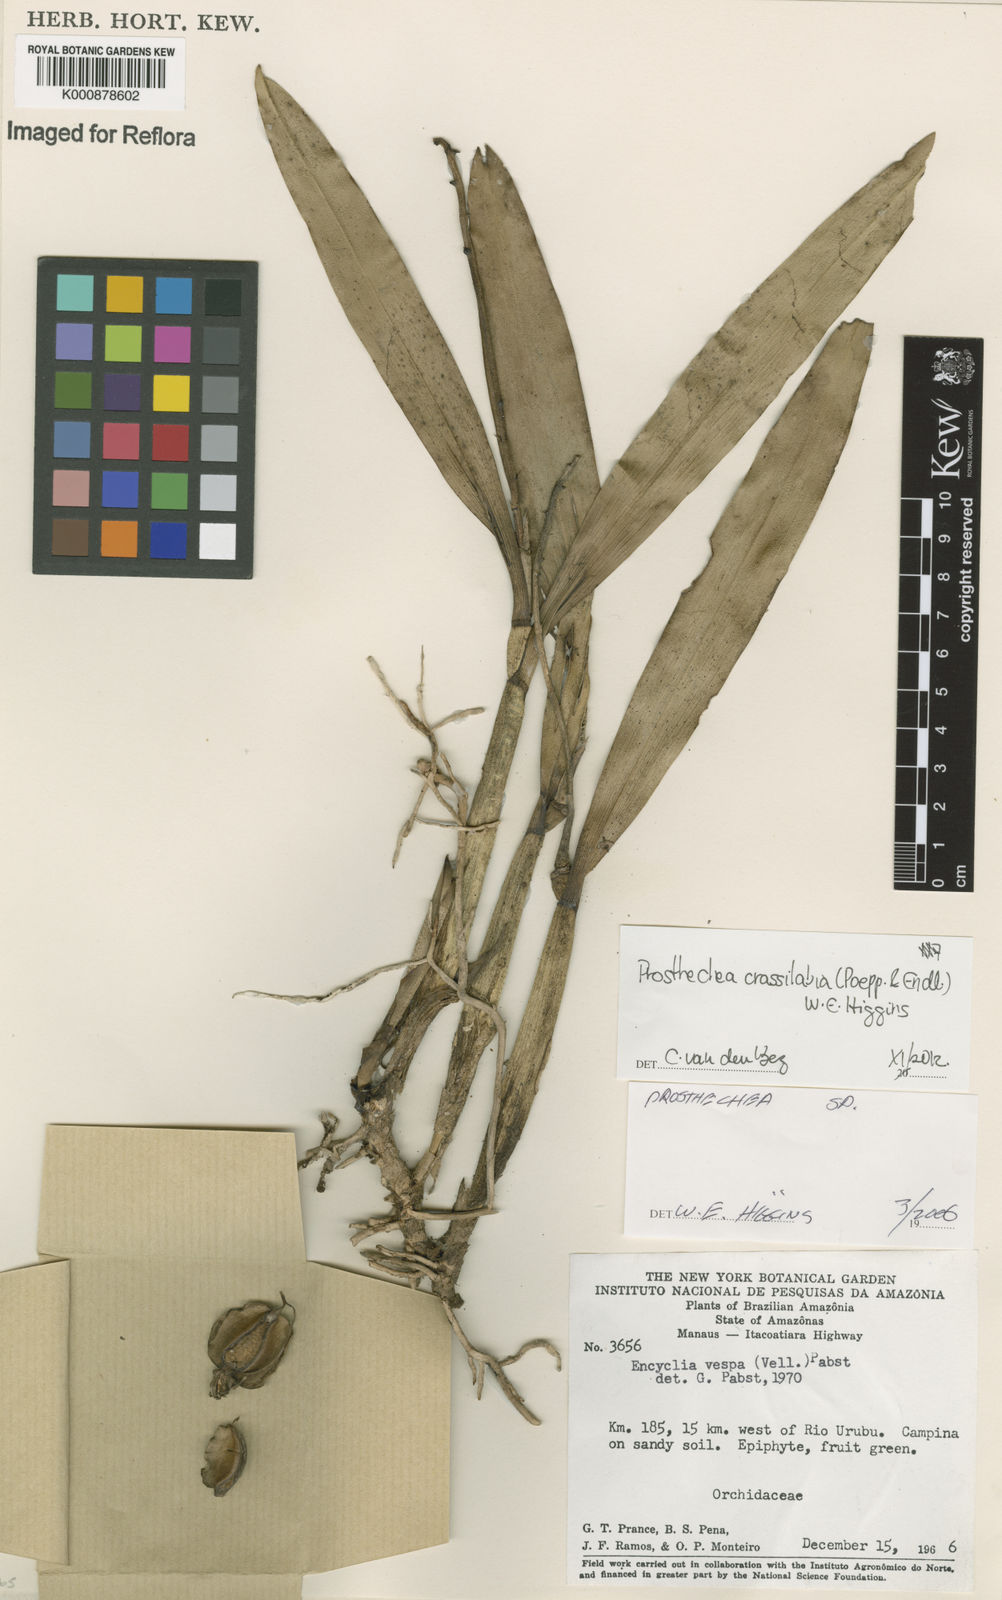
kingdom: Plantae
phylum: Tracheophyta
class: Liliopsida
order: Asparagales
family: Orchidaceae
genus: Prosthechea
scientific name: Prosthechea
